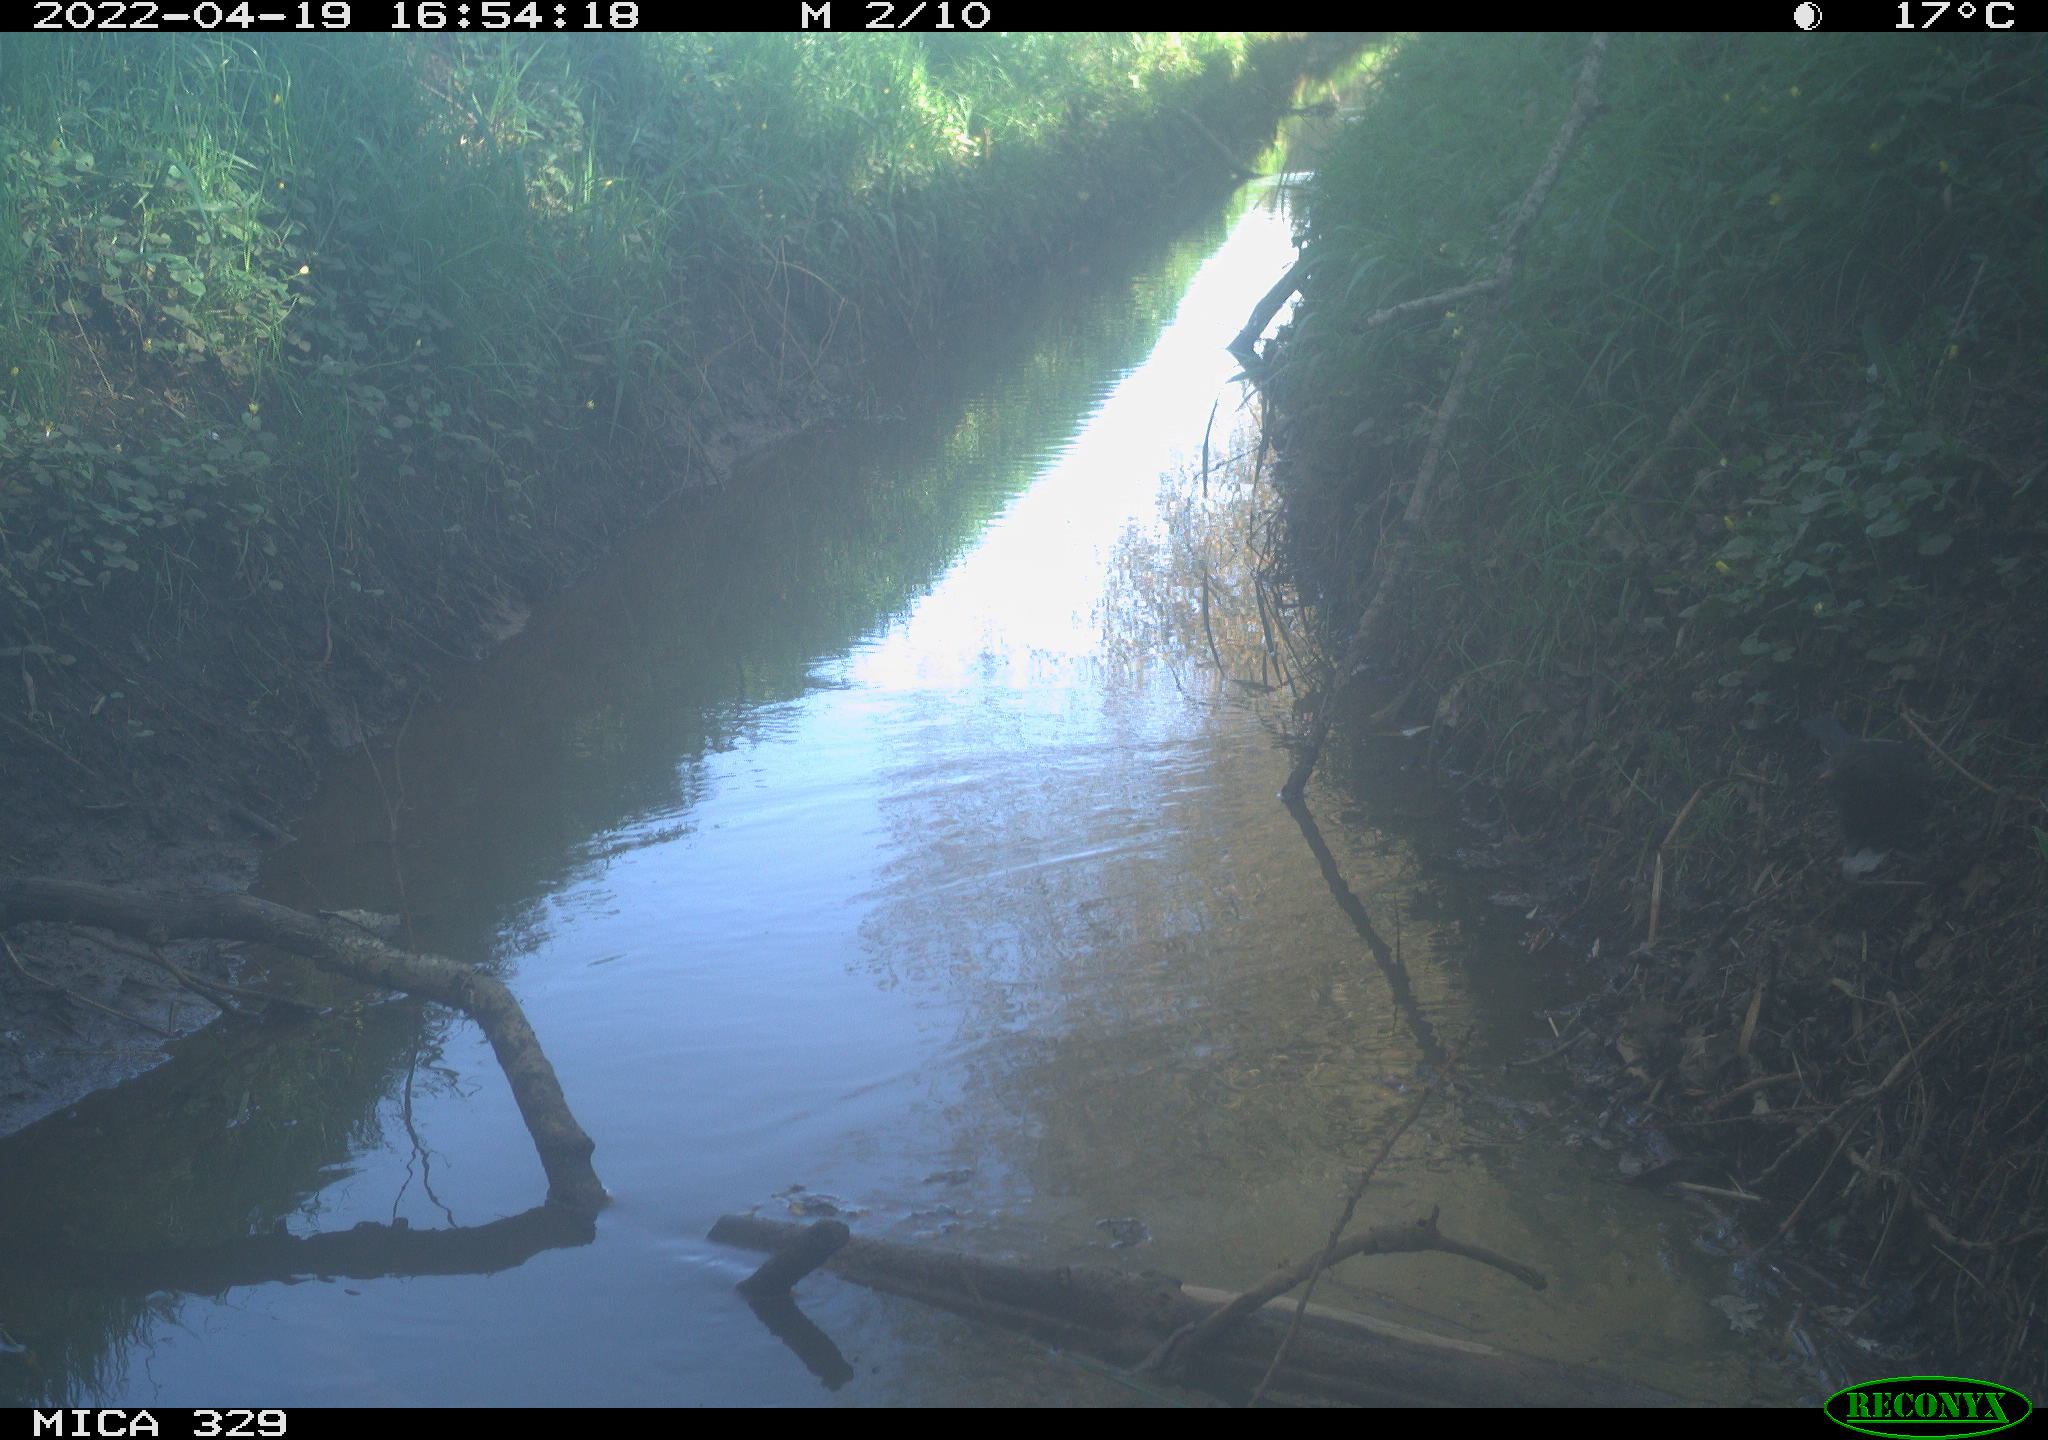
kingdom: Animalia
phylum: Chordata
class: Aves
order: Passeriformes
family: Turdidae
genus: Turdus
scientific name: Turdus merula
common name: Common blackbird
